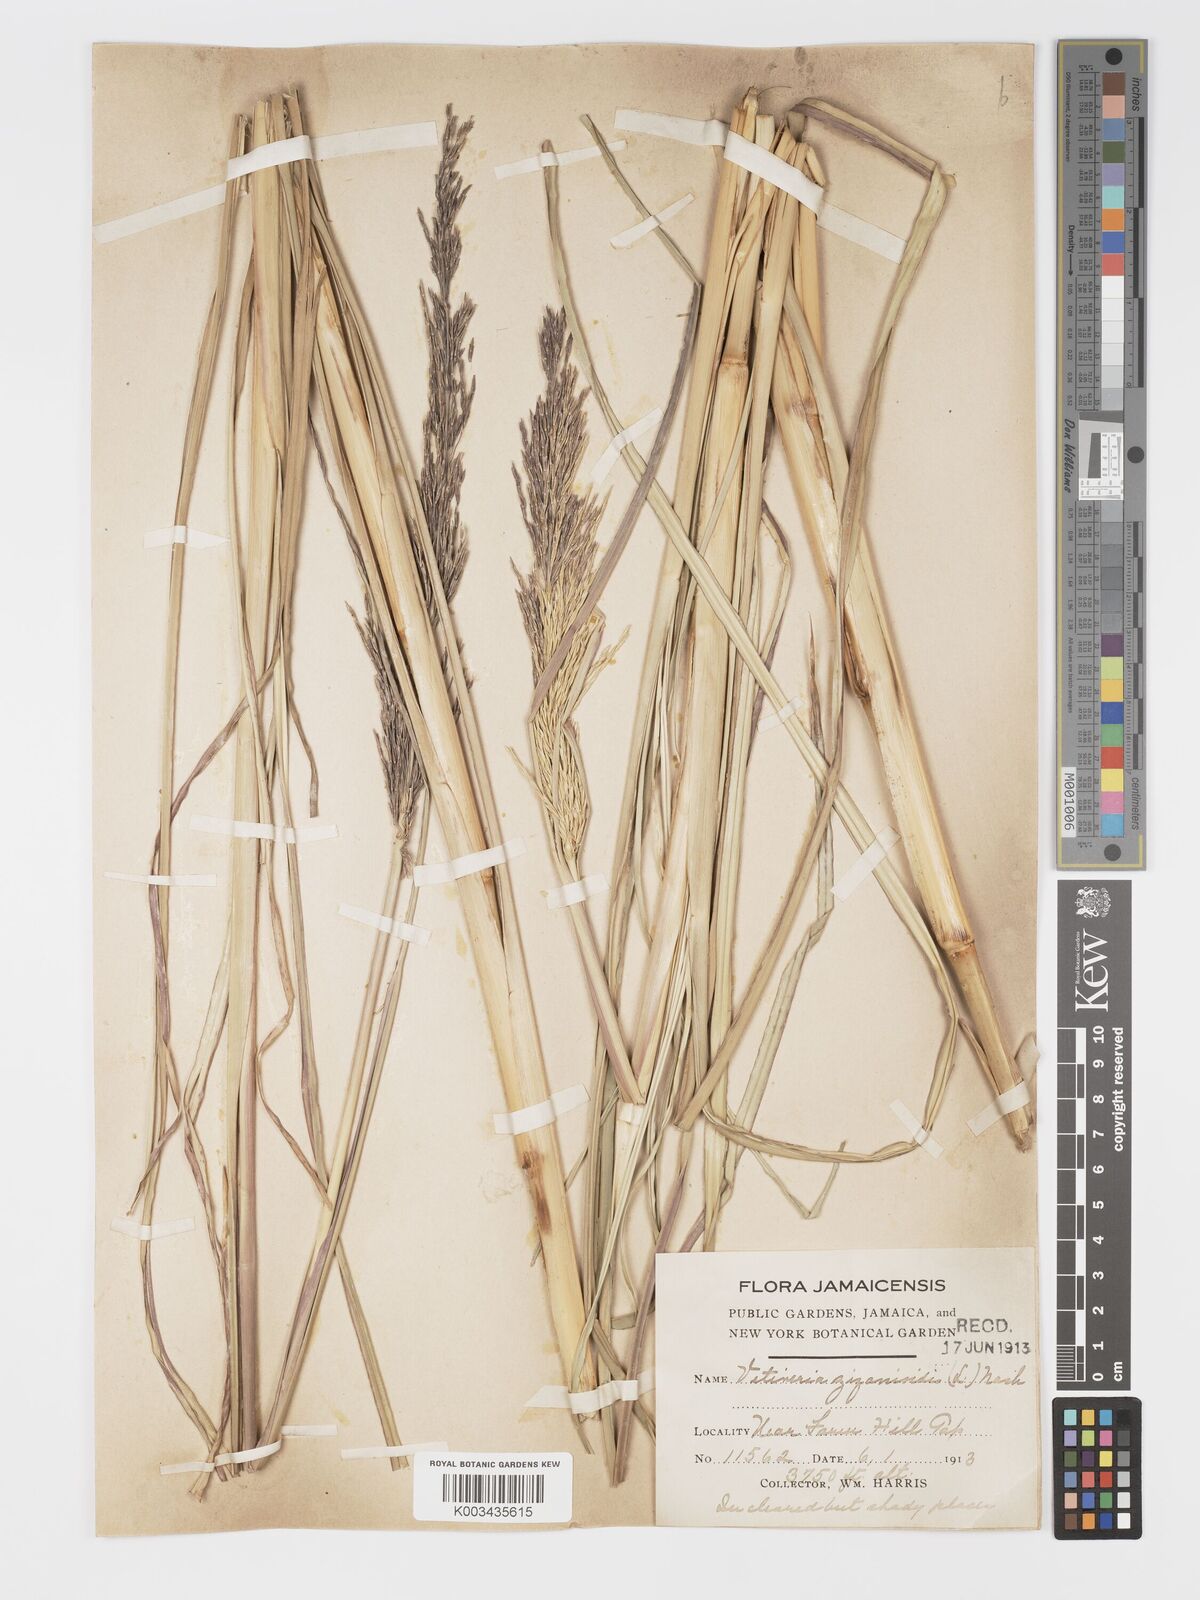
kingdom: Plantae
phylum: Tracheophyta
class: Liliopsida
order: Poales
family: Poaceae
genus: Chrysopogon
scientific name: Chrysopogon zizanioides
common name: False beardgrass
